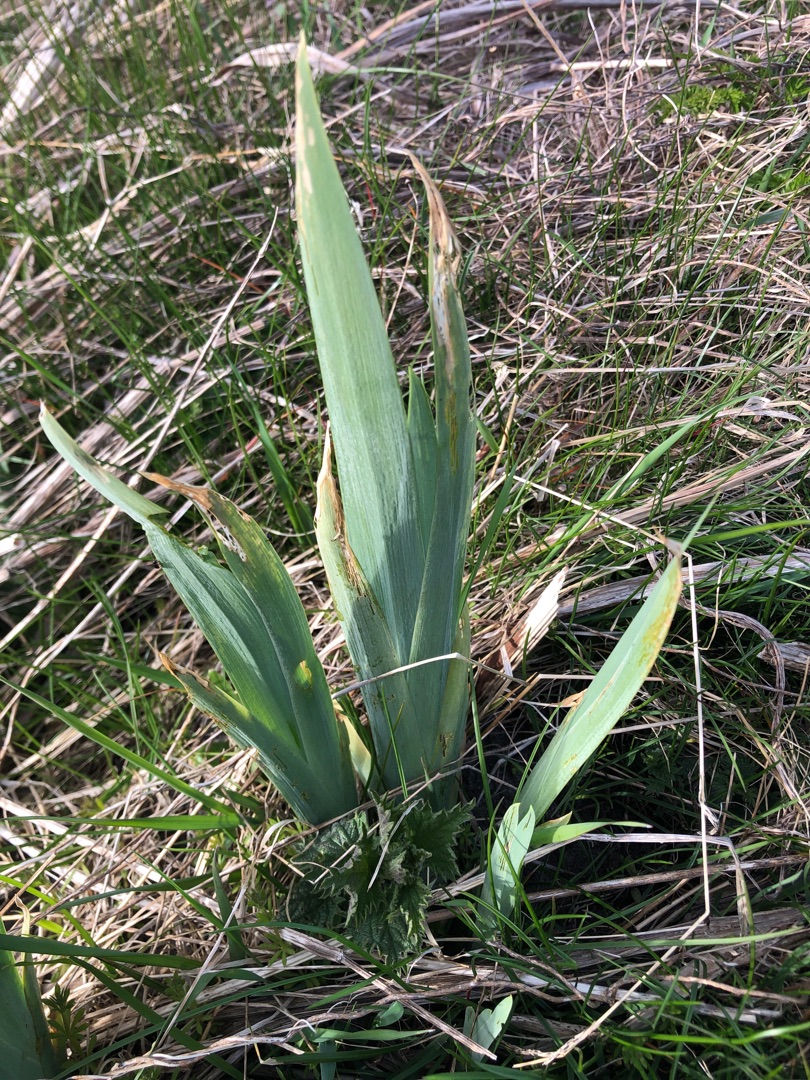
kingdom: Plantae
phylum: Tracheophyta
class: Liliopsida
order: Asparagales
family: Iridaceae
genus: Iris
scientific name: Iris pseudacorus
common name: Gul iris
